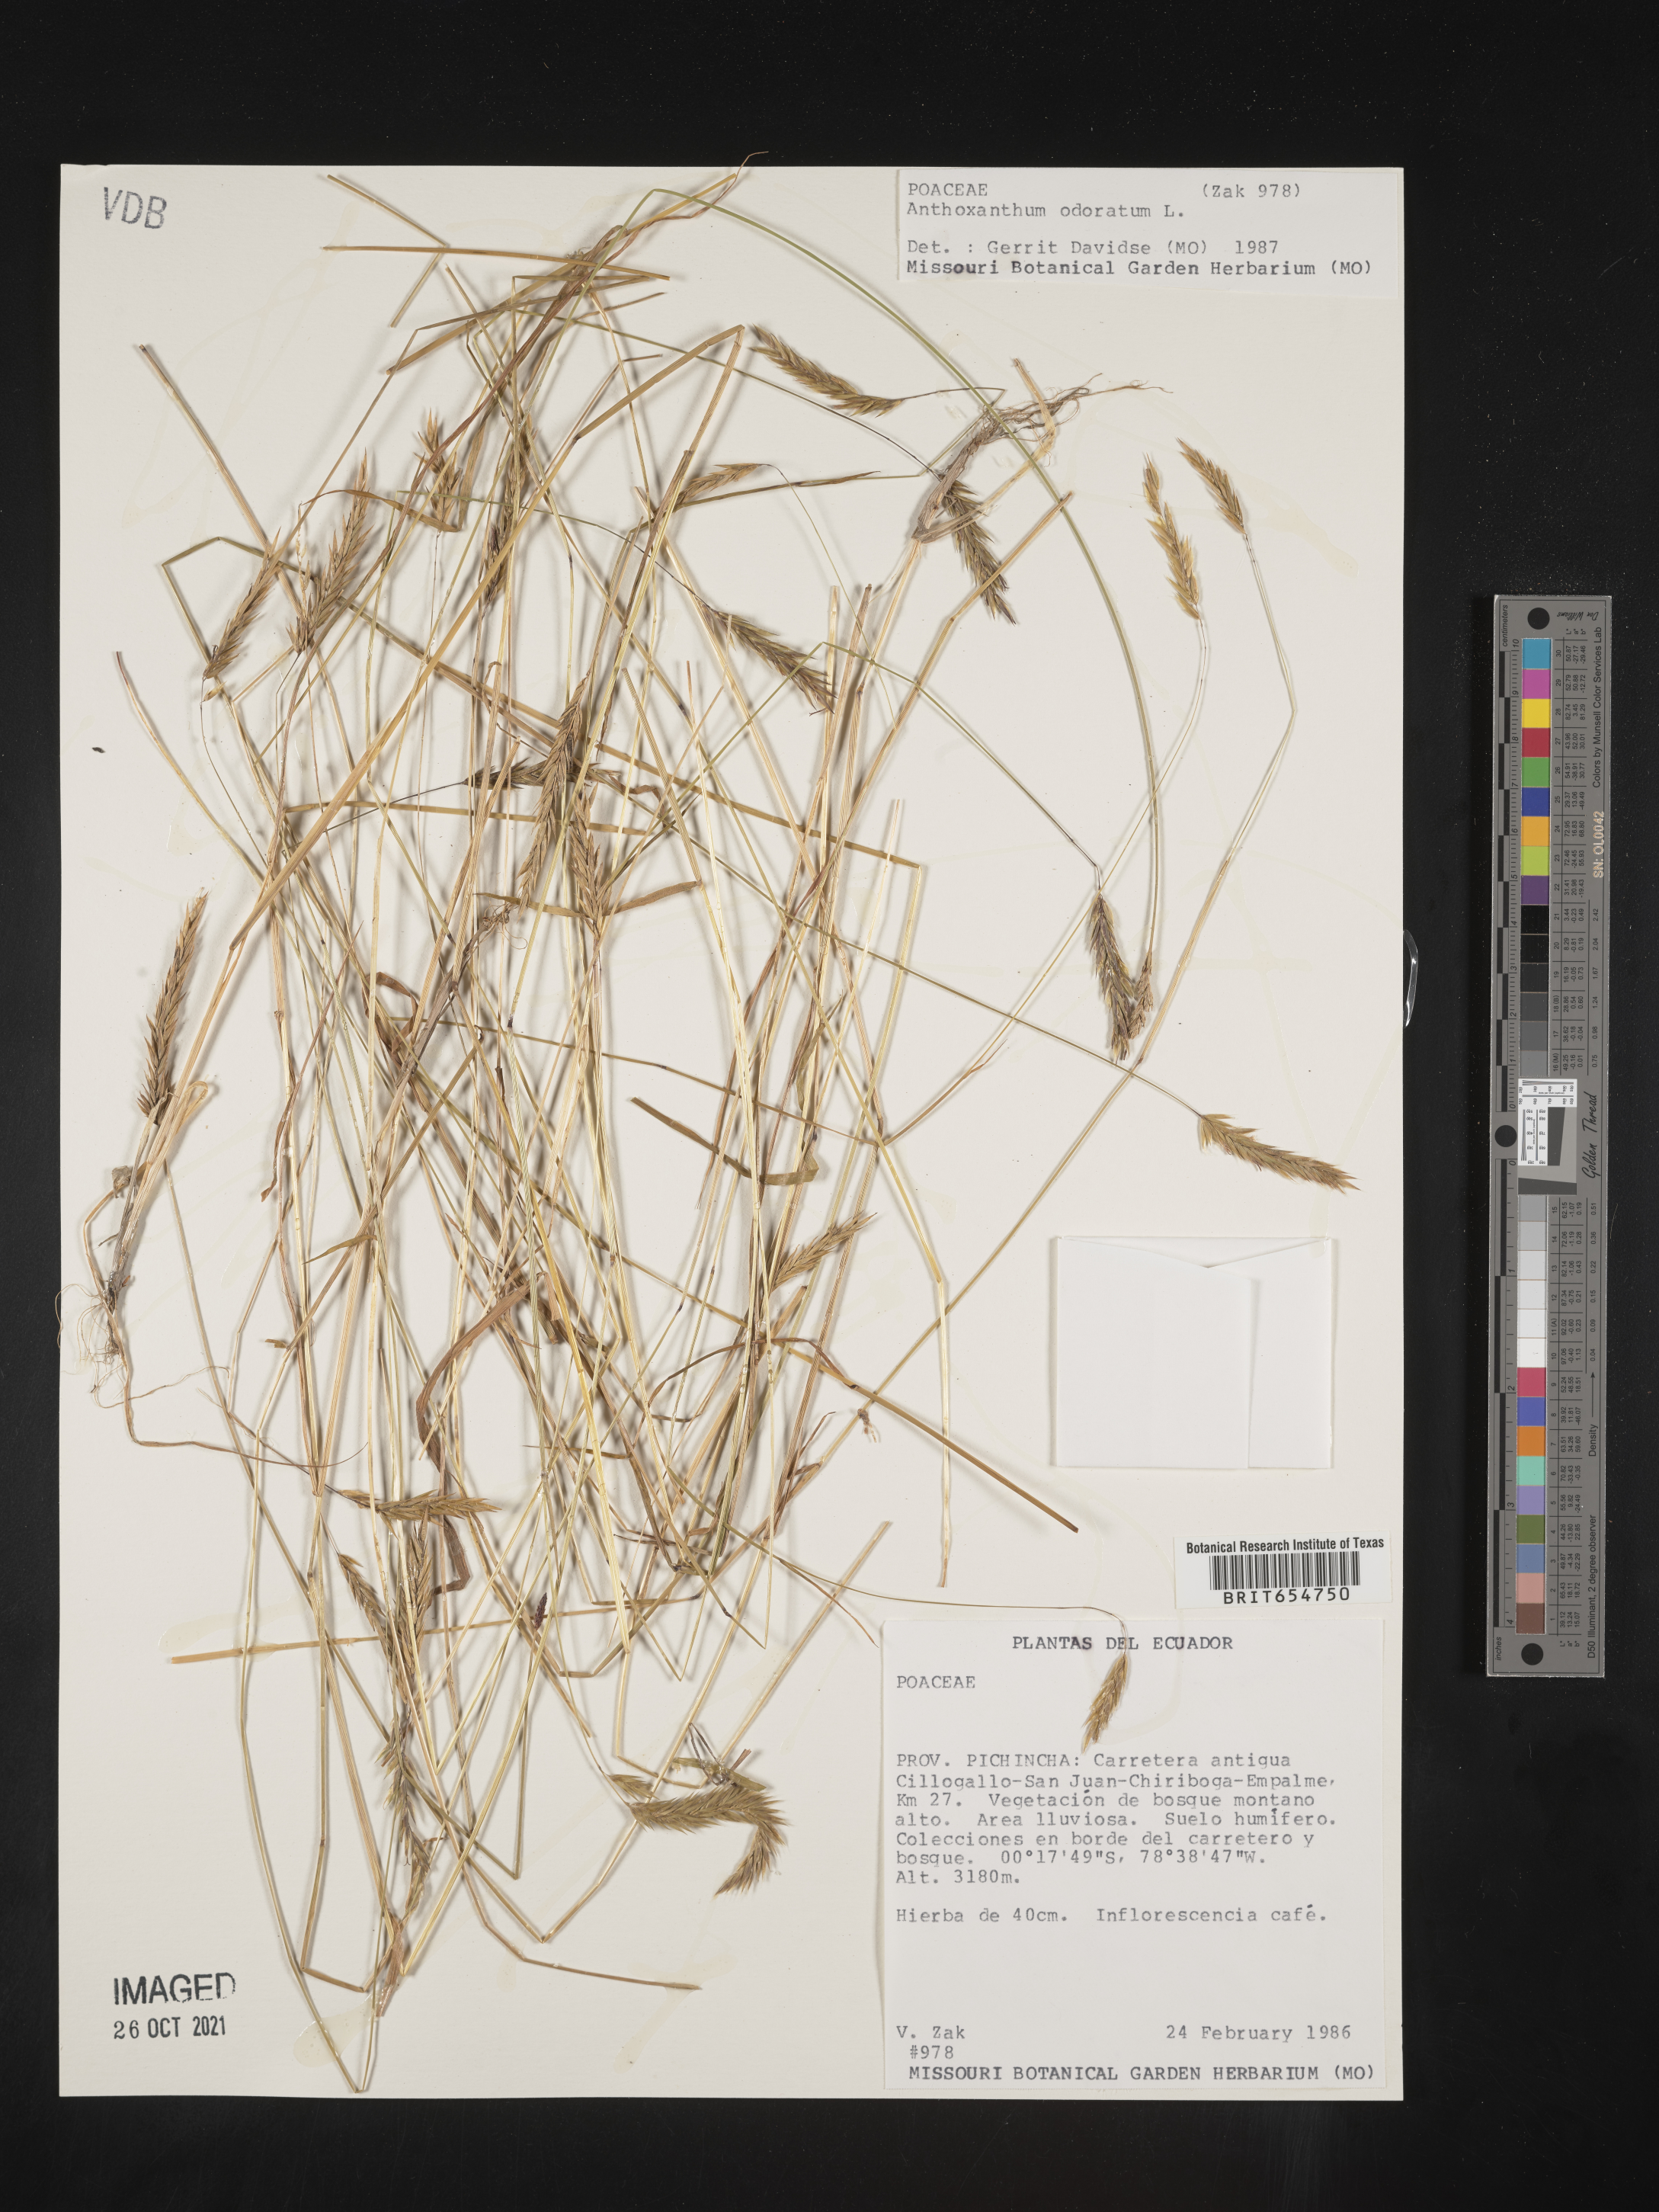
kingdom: Plantae
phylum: Tracheophyta
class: Liliopsida
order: Poales
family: Poaceae
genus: Anthoxanthum
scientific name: Anthoxanthum
